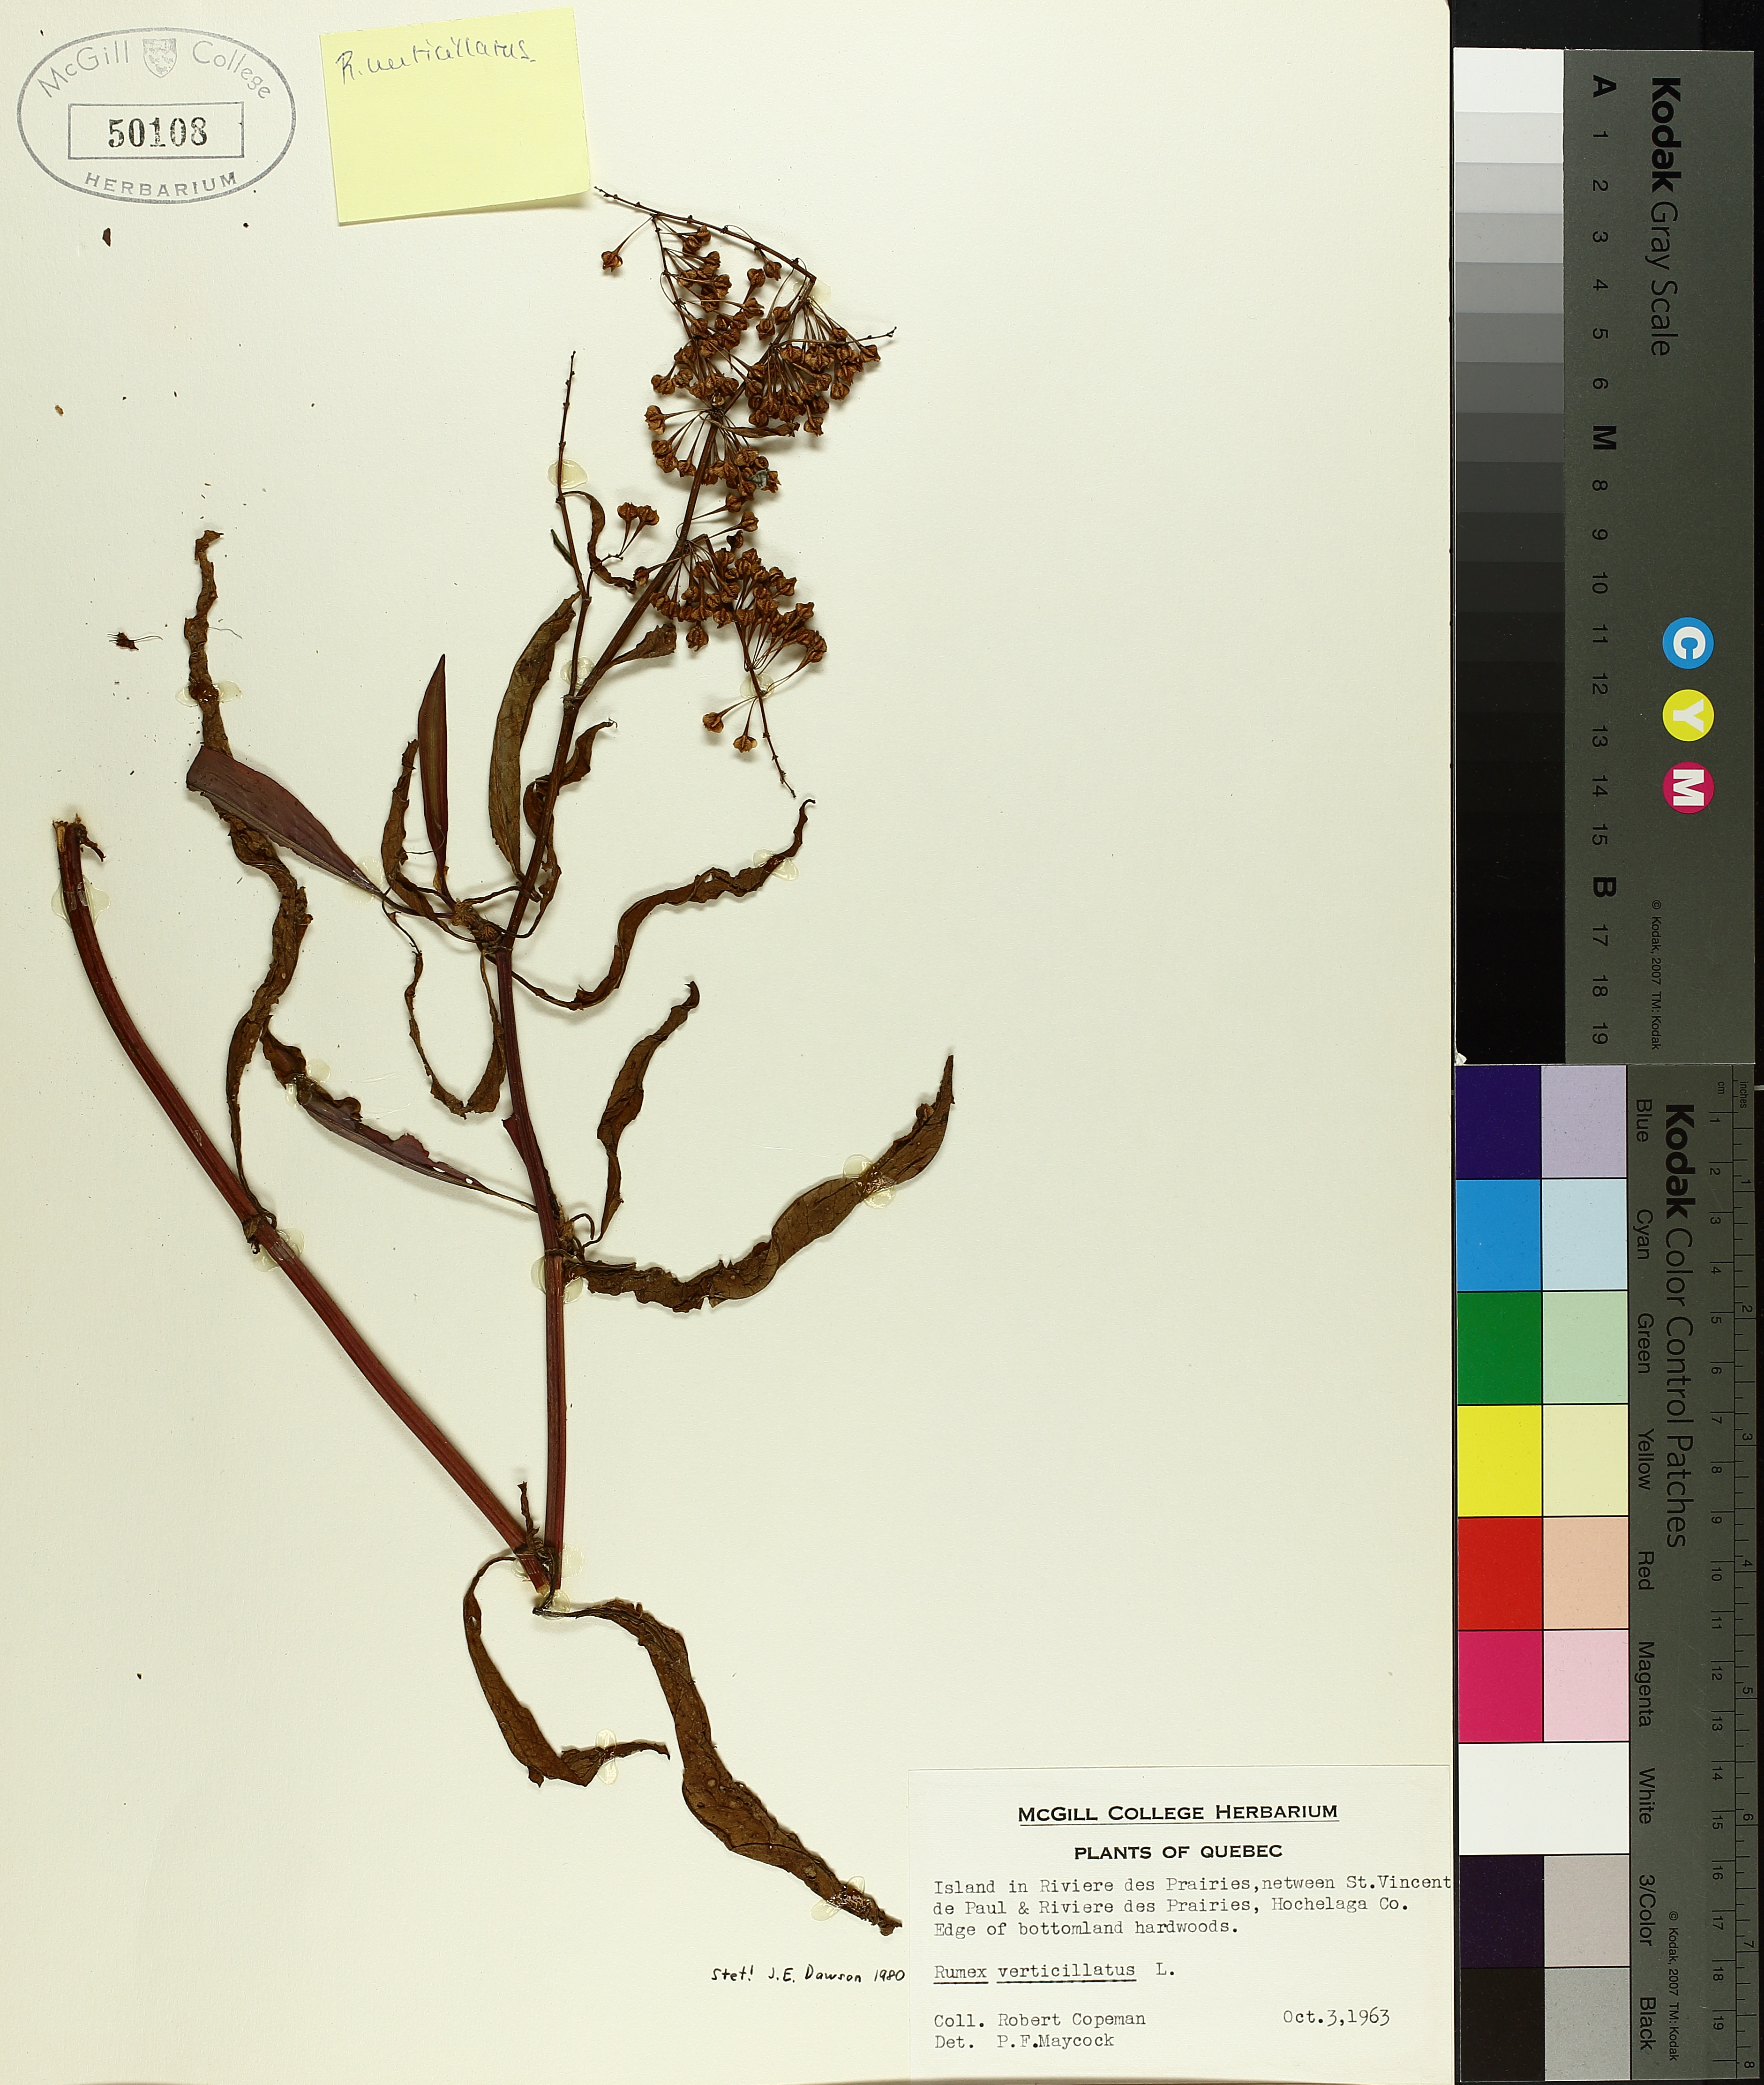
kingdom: Plantae
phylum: Tracheophyta
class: Magnoliopsida
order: Caryophyllales
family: Polygonaceae
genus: Rumex
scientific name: Rumex verticillatus
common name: Swamp dock
